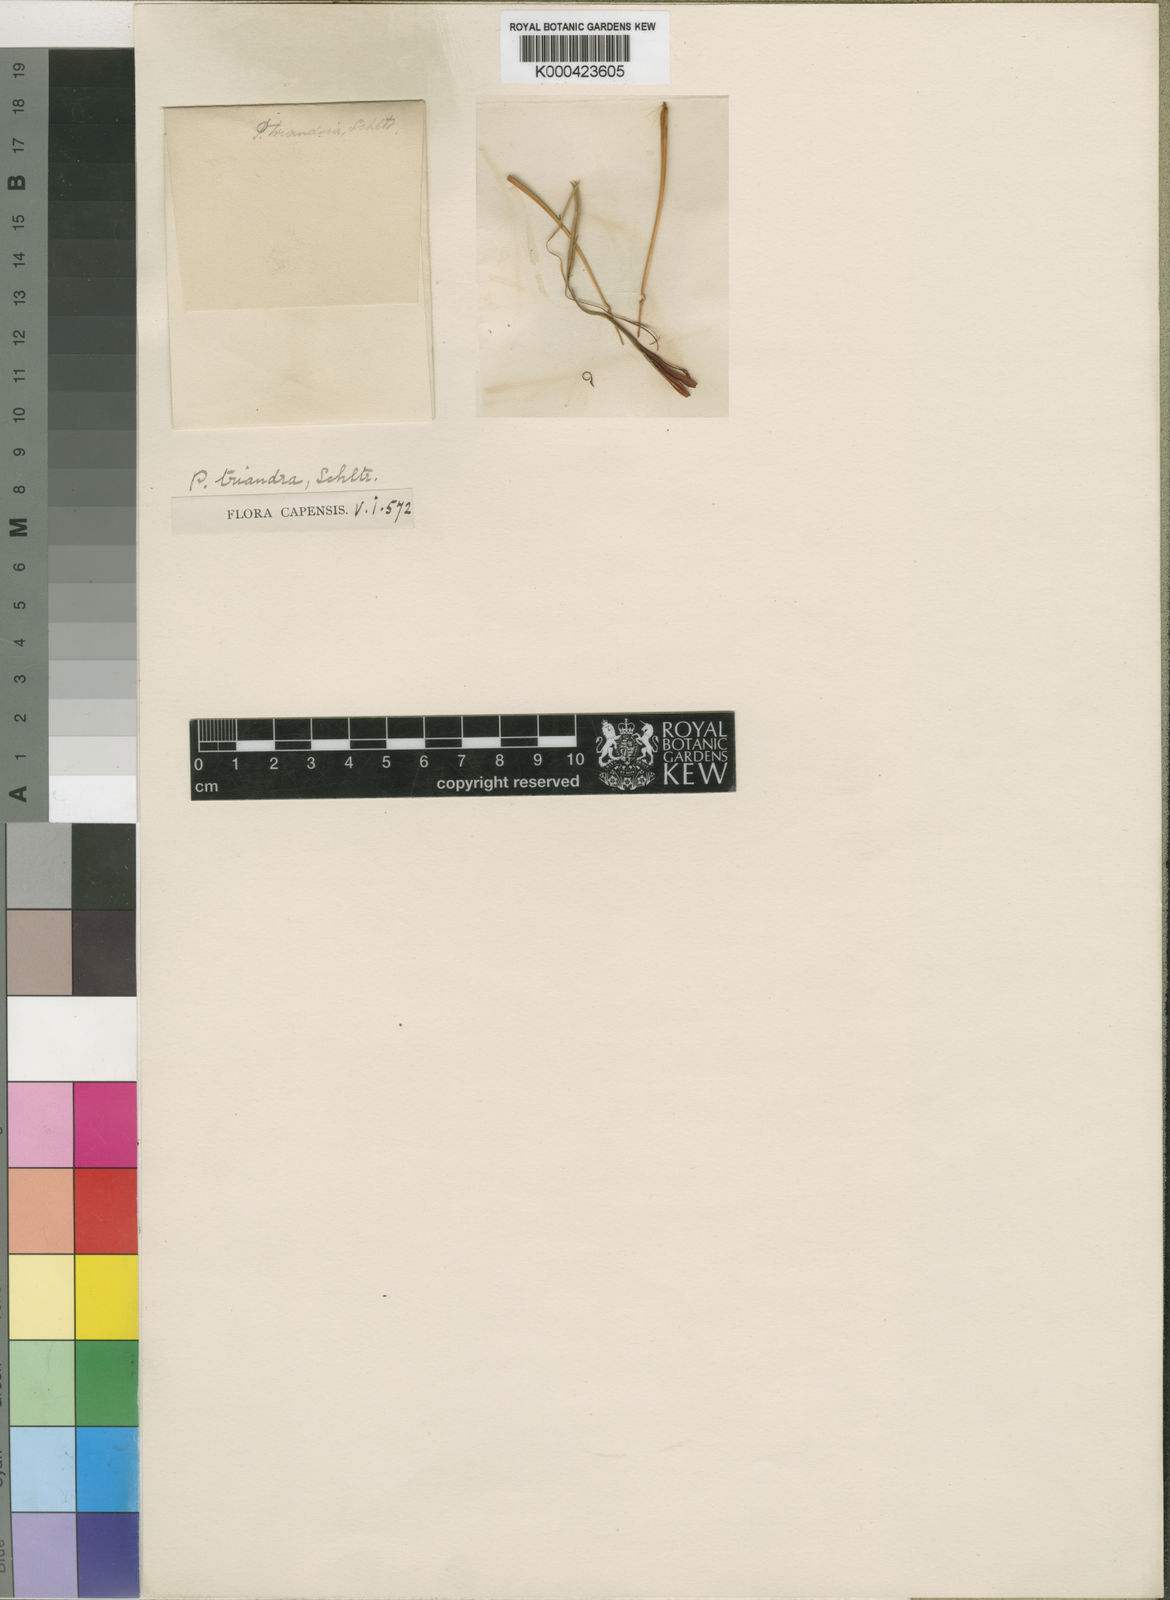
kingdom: Plantae
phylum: Tracheophyta
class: Magnoliopsida
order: Proteales
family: Proteaceae
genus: Protea
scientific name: Protea compacta
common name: Bot river protea
